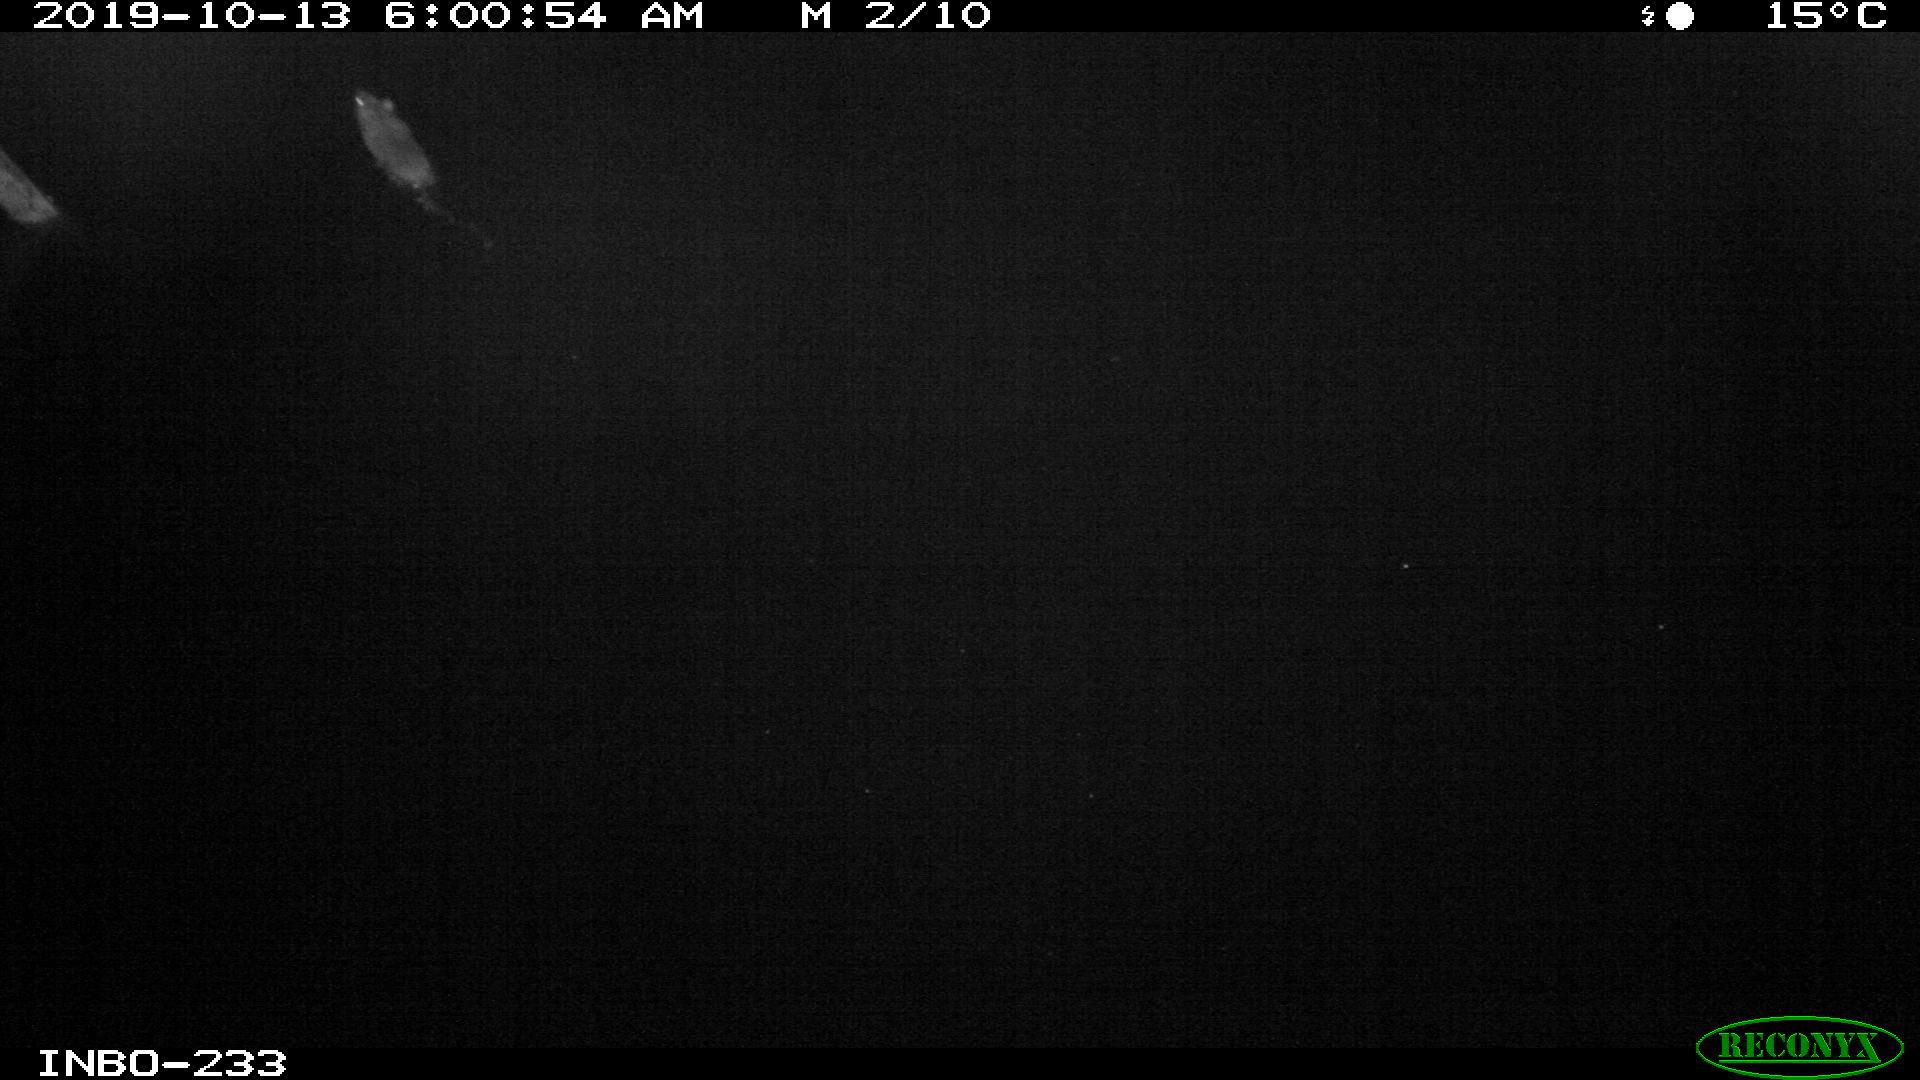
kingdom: Animalia
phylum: Chordata
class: Mammalia
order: Rodentia
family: Muridae
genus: Rattus
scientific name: Rattus norvegicus
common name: Brown rat
